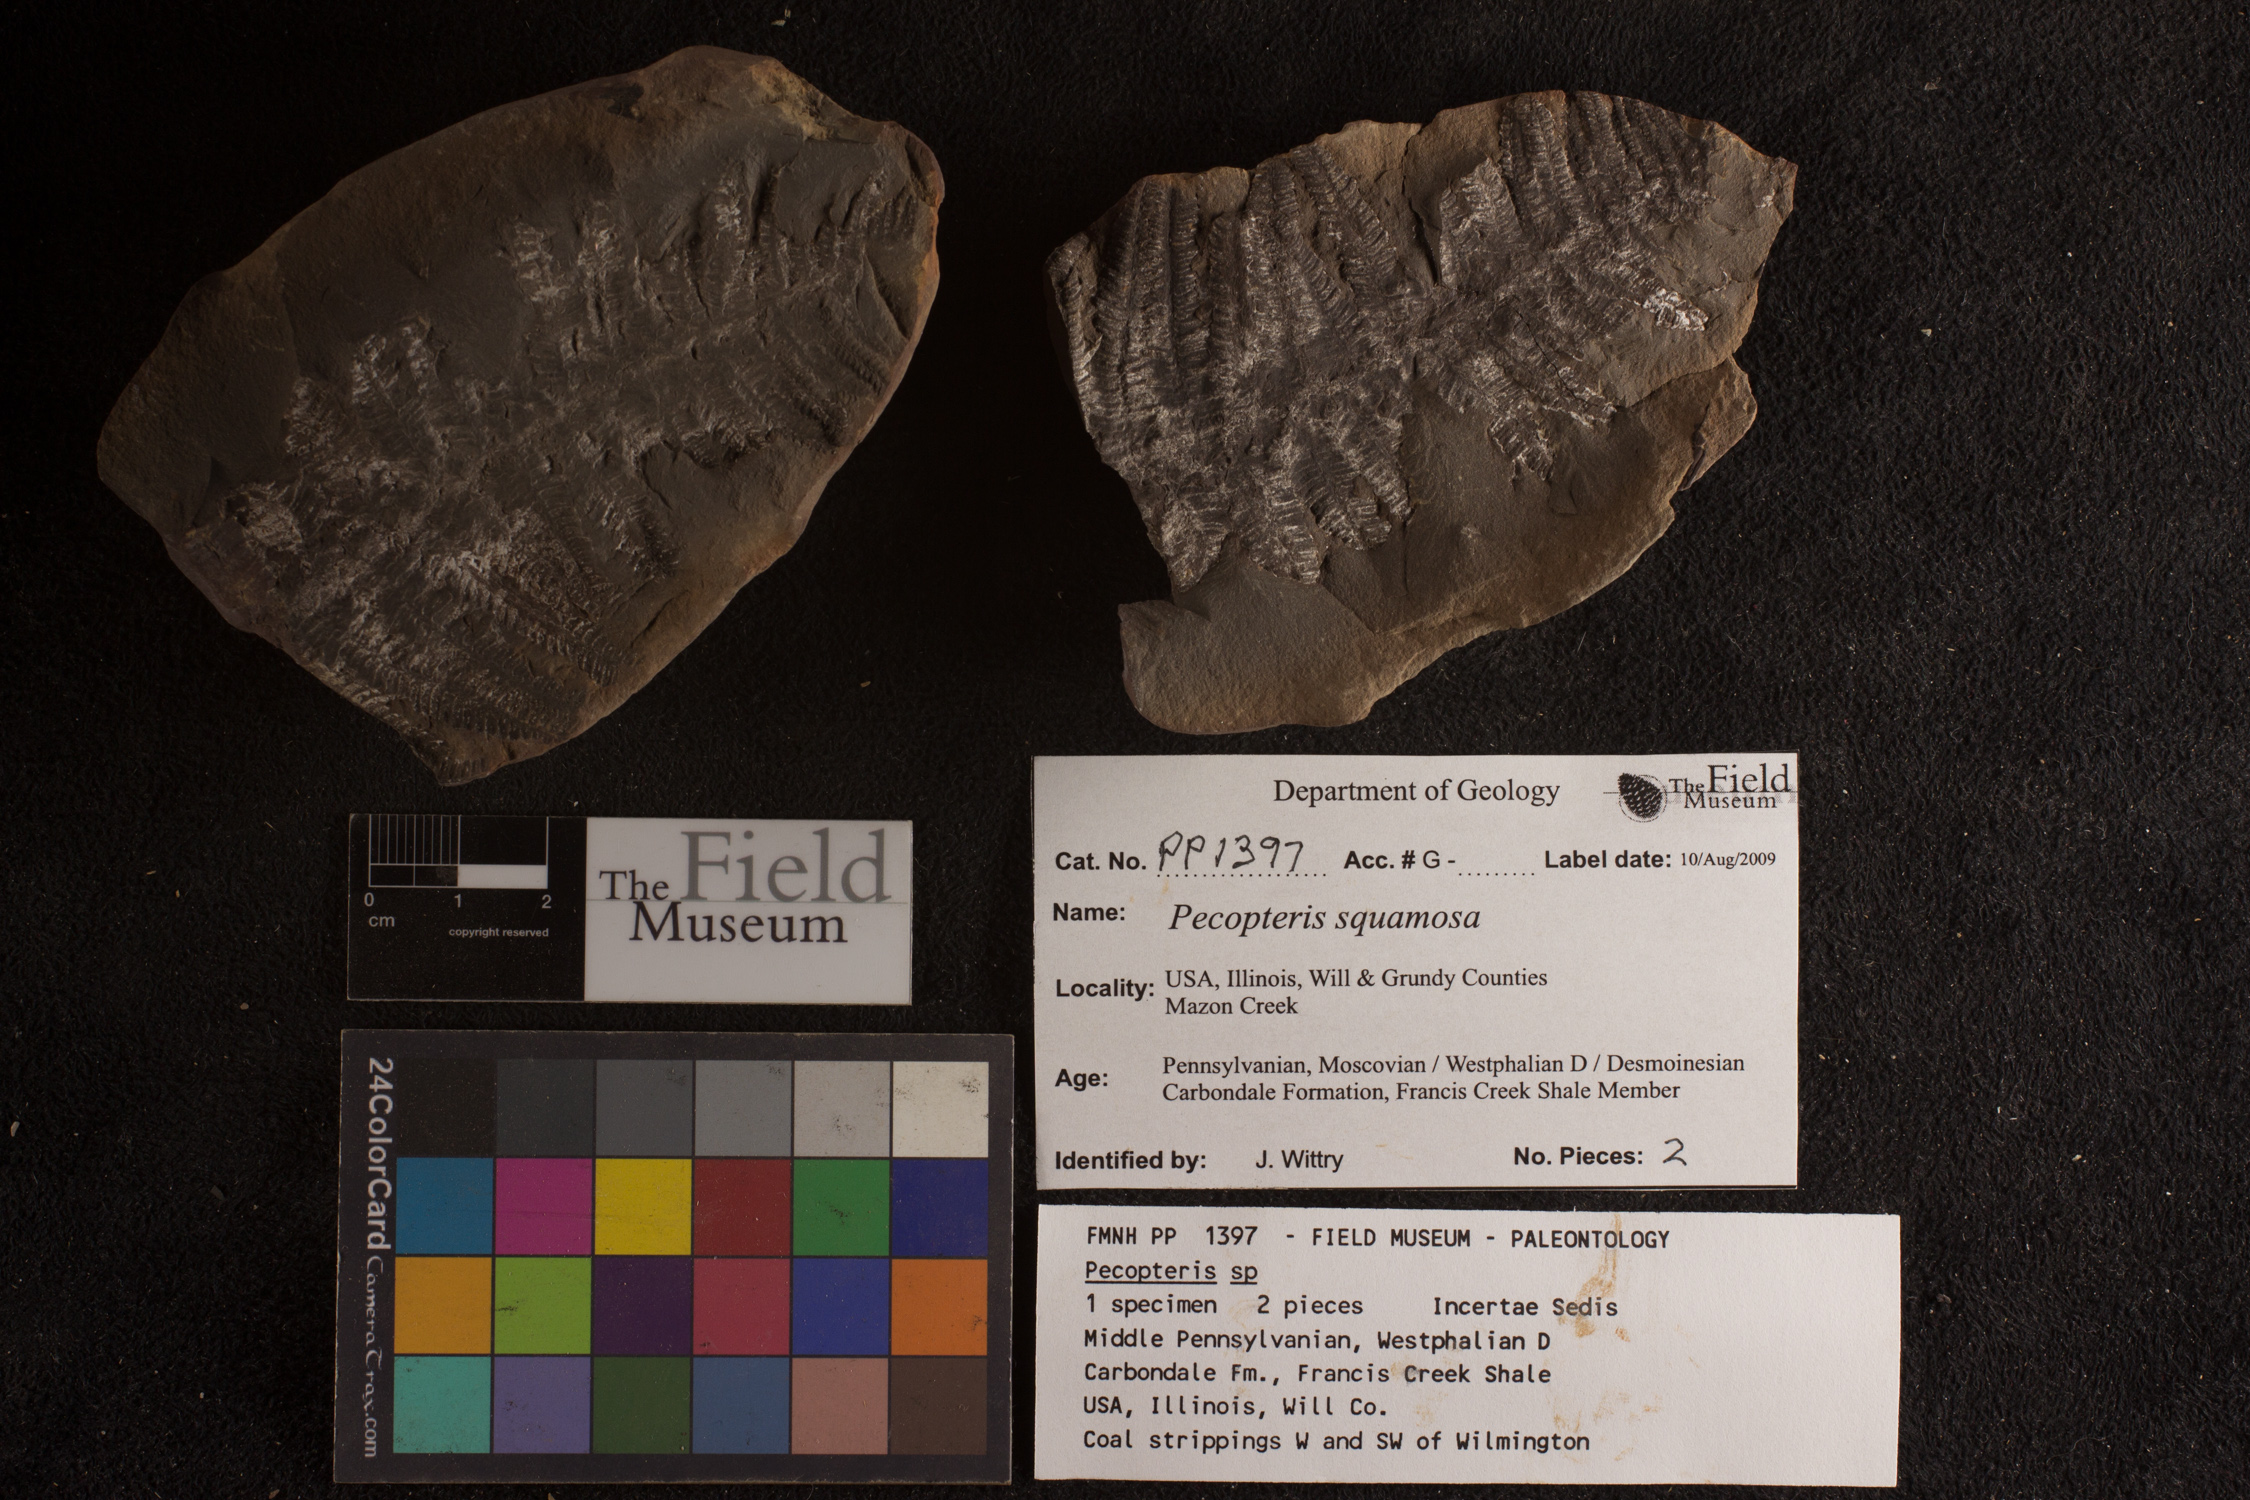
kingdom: Plantae
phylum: Tracheophyta
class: Polypodiopsida
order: Marattiales
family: Asterothecaceae
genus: Pecopteris
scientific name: Pecopteris
